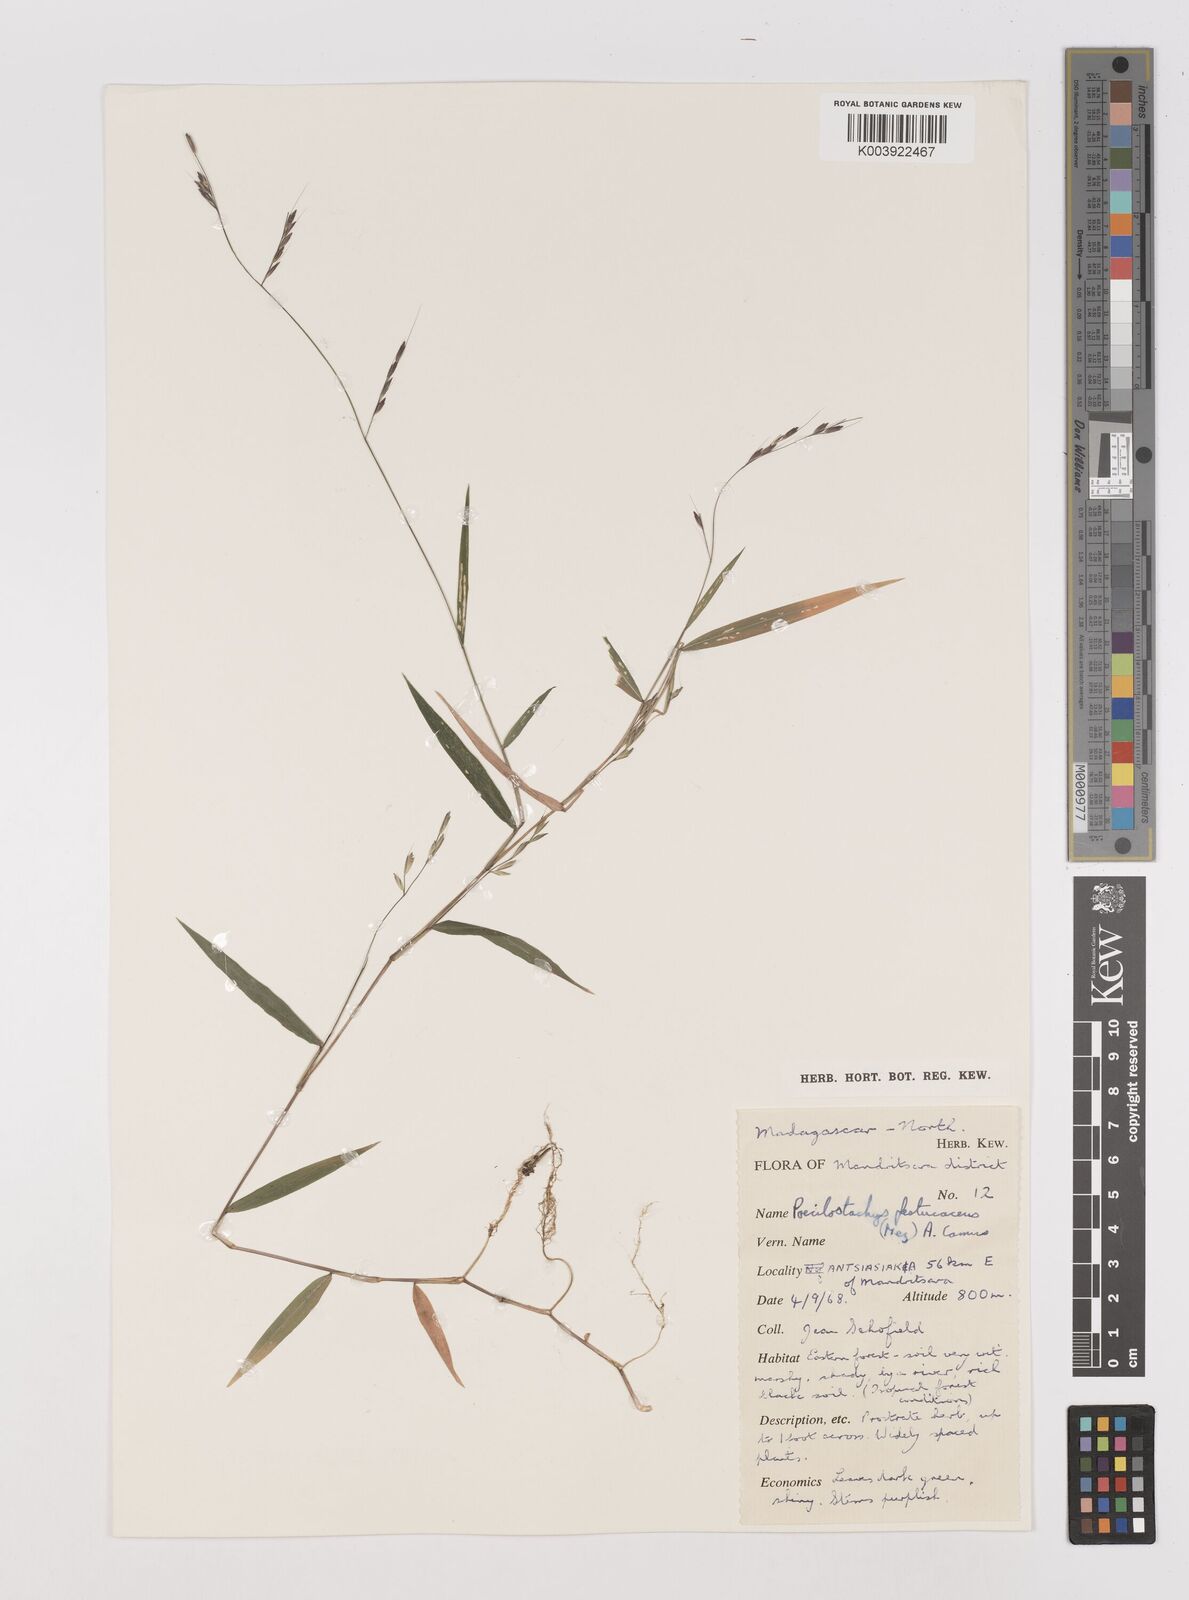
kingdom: Plantae
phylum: Tracheophyta
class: Liliopsida
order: Poales
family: Poaceae
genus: Poecilostachys
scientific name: Poecilostachys baronis
